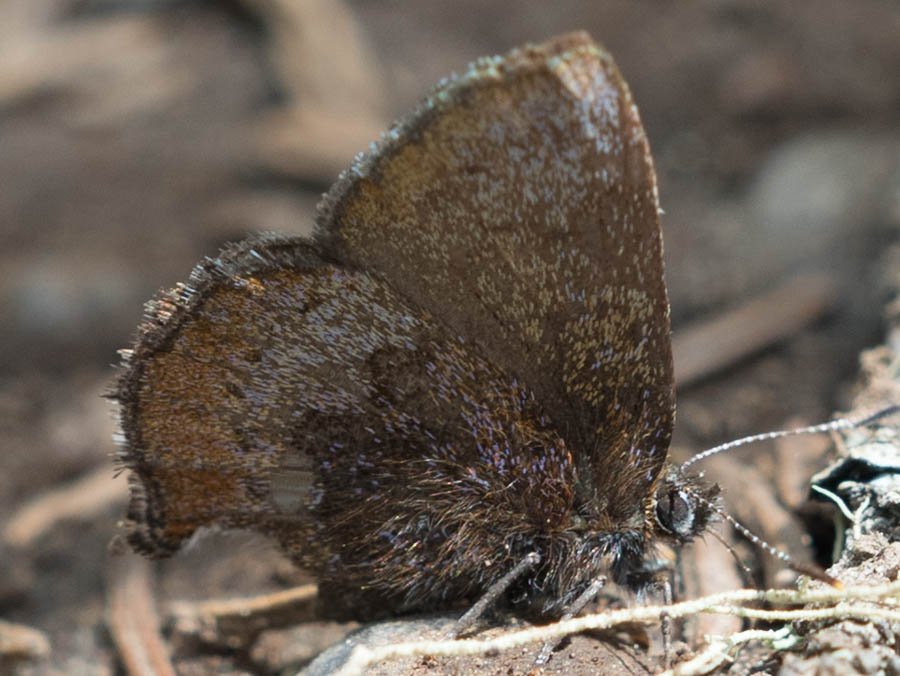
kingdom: Animalia
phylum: Arthropoda
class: Insecta
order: Lepidoptera
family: Lycaenidae
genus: Callophrys
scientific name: Callophrys polios
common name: Hoary Elfin
